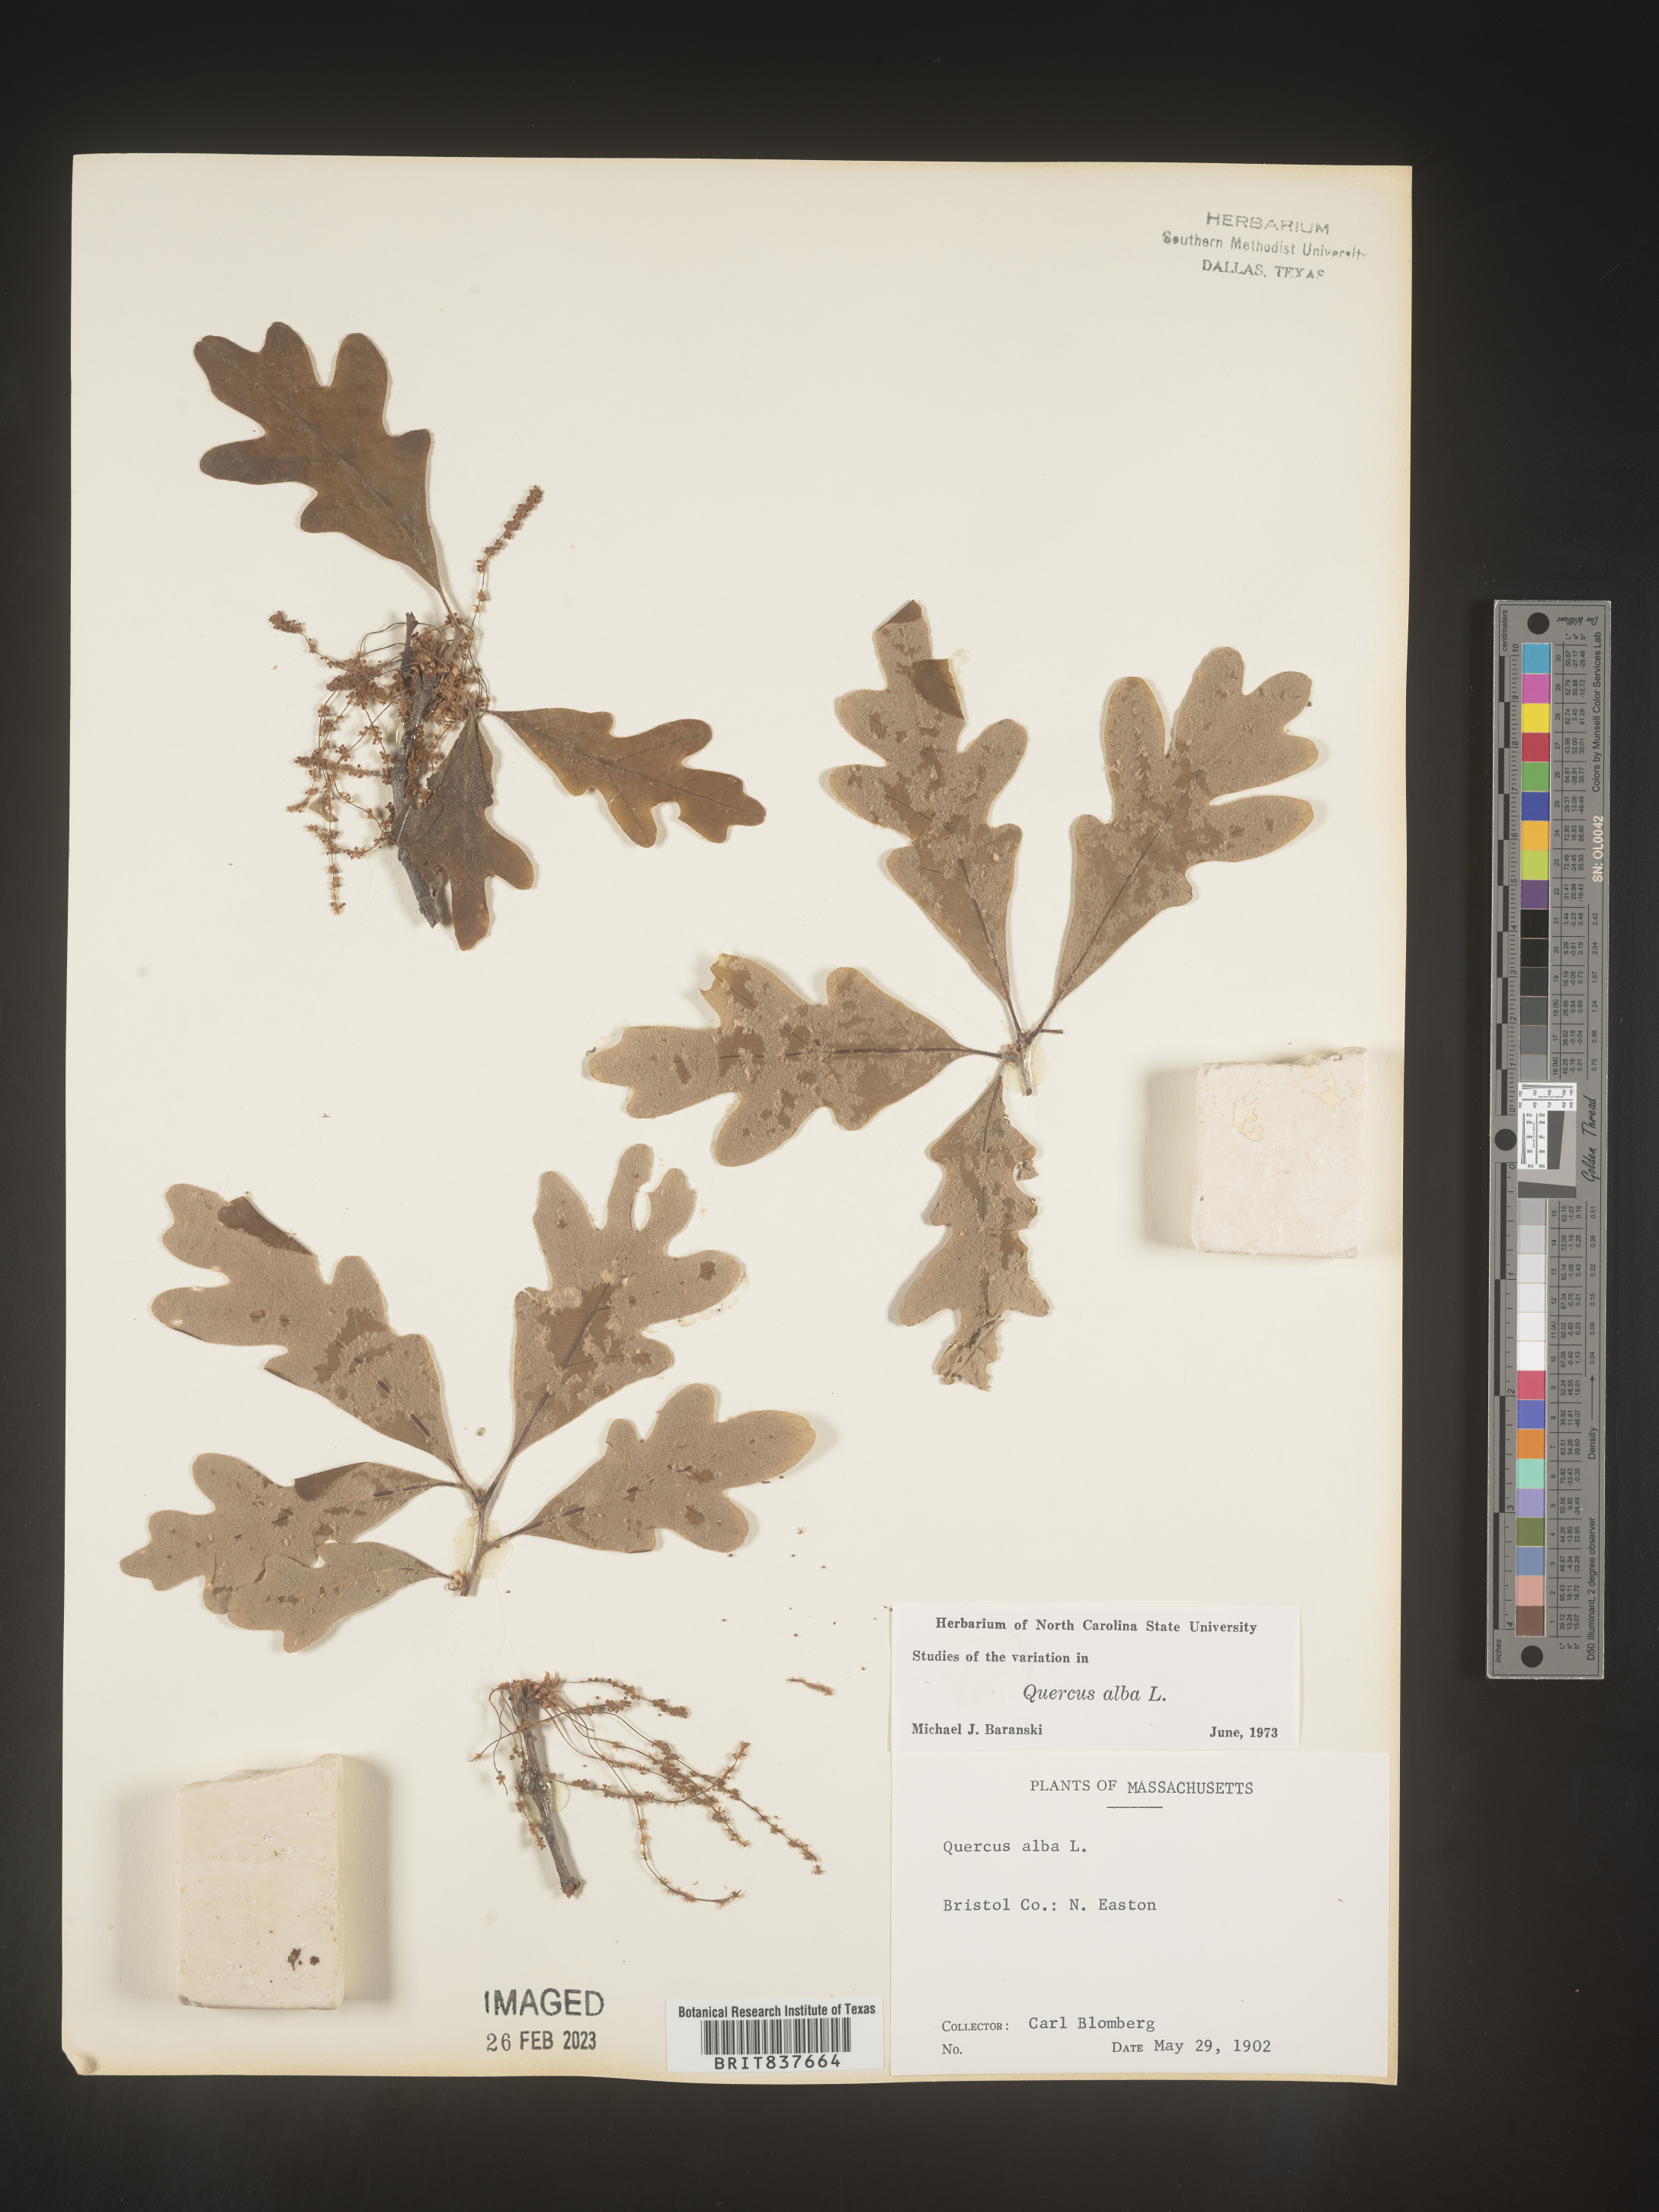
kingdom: Plantae
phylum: Tracheophyta
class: Magnoliopsida
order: Fagales
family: Fagaceae
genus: Quercus
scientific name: Quercus alba
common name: White oak
